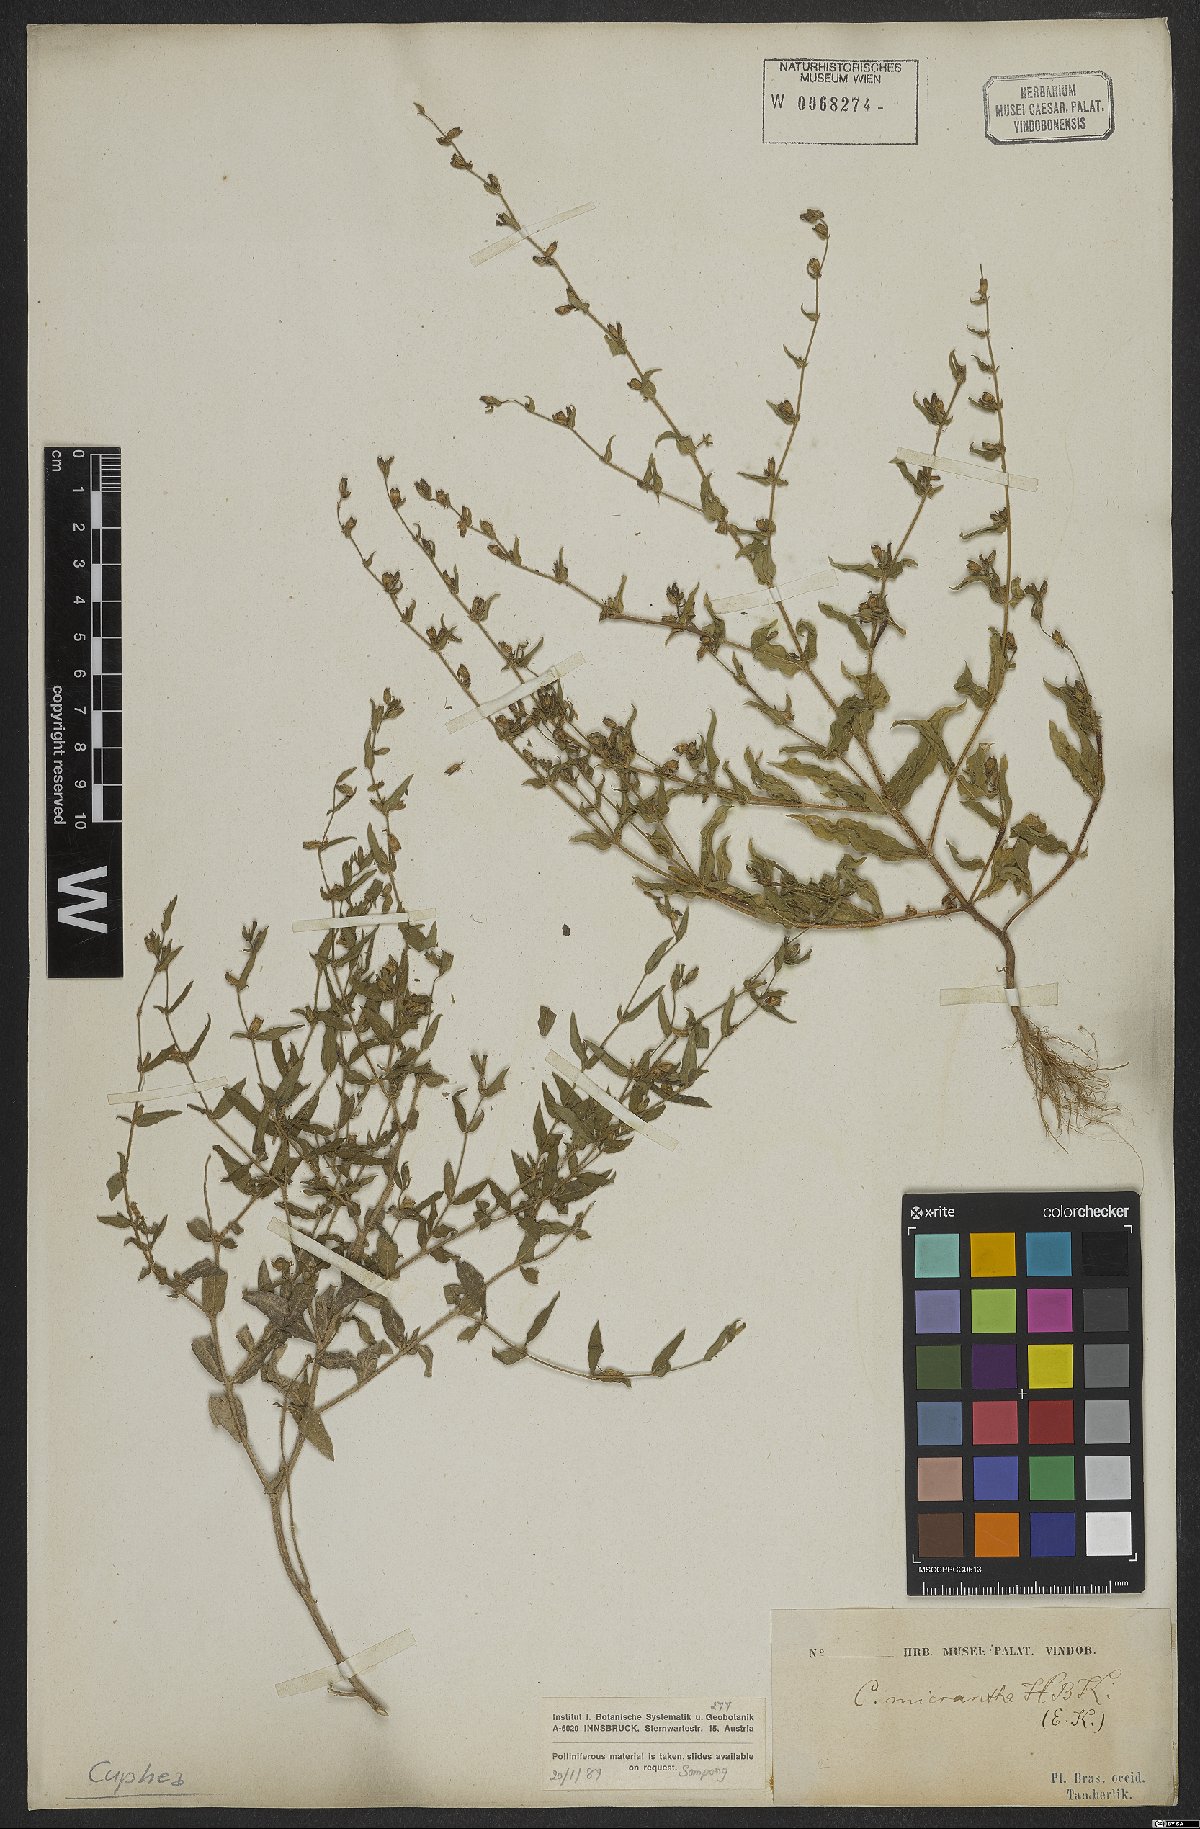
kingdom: Plantae
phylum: Tracheophyta
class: Magnoliopsida
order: Myrtales
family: Lythraceae
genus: Cuphea
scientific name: Cuphea micrantha
